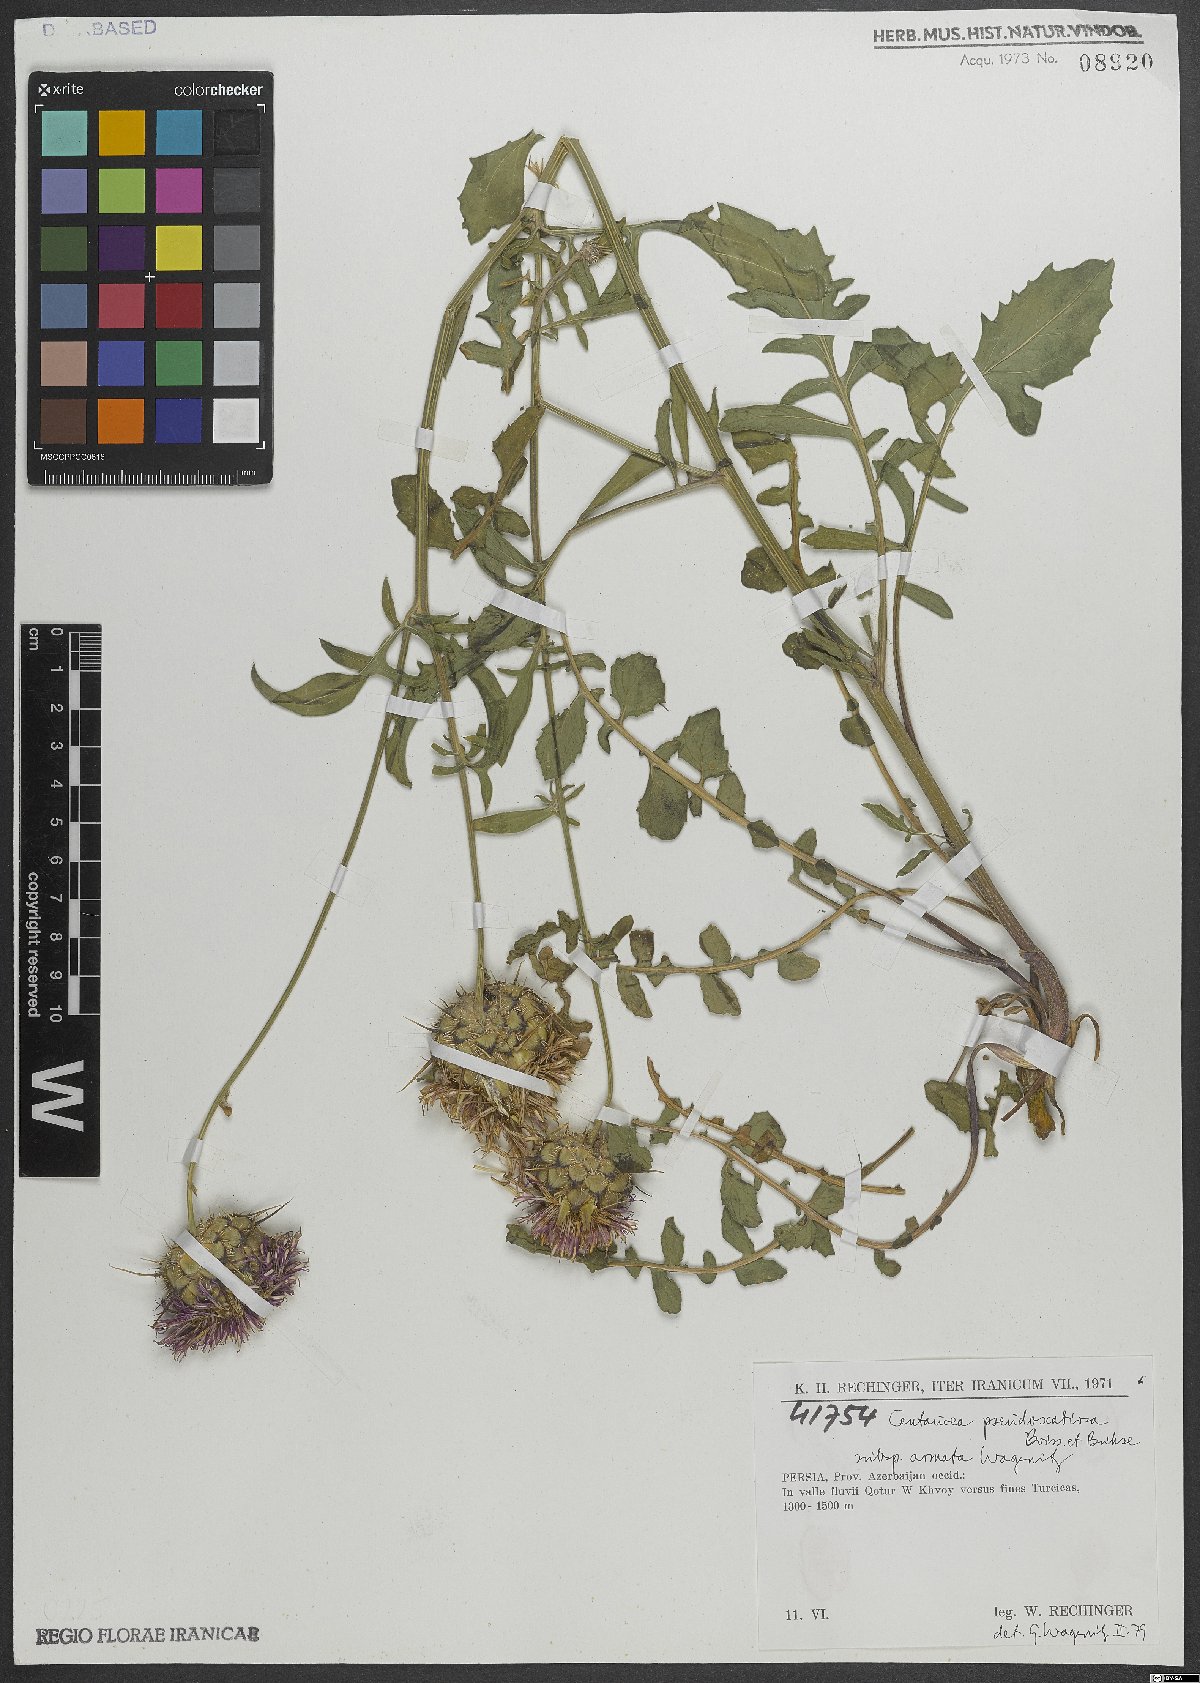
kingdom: Plantae
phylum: Tracheophyta
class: Magnoliopsida
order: Asterales
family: Asteraceae
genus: Centaurea
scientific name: Centaurea pseudoscabiosa
